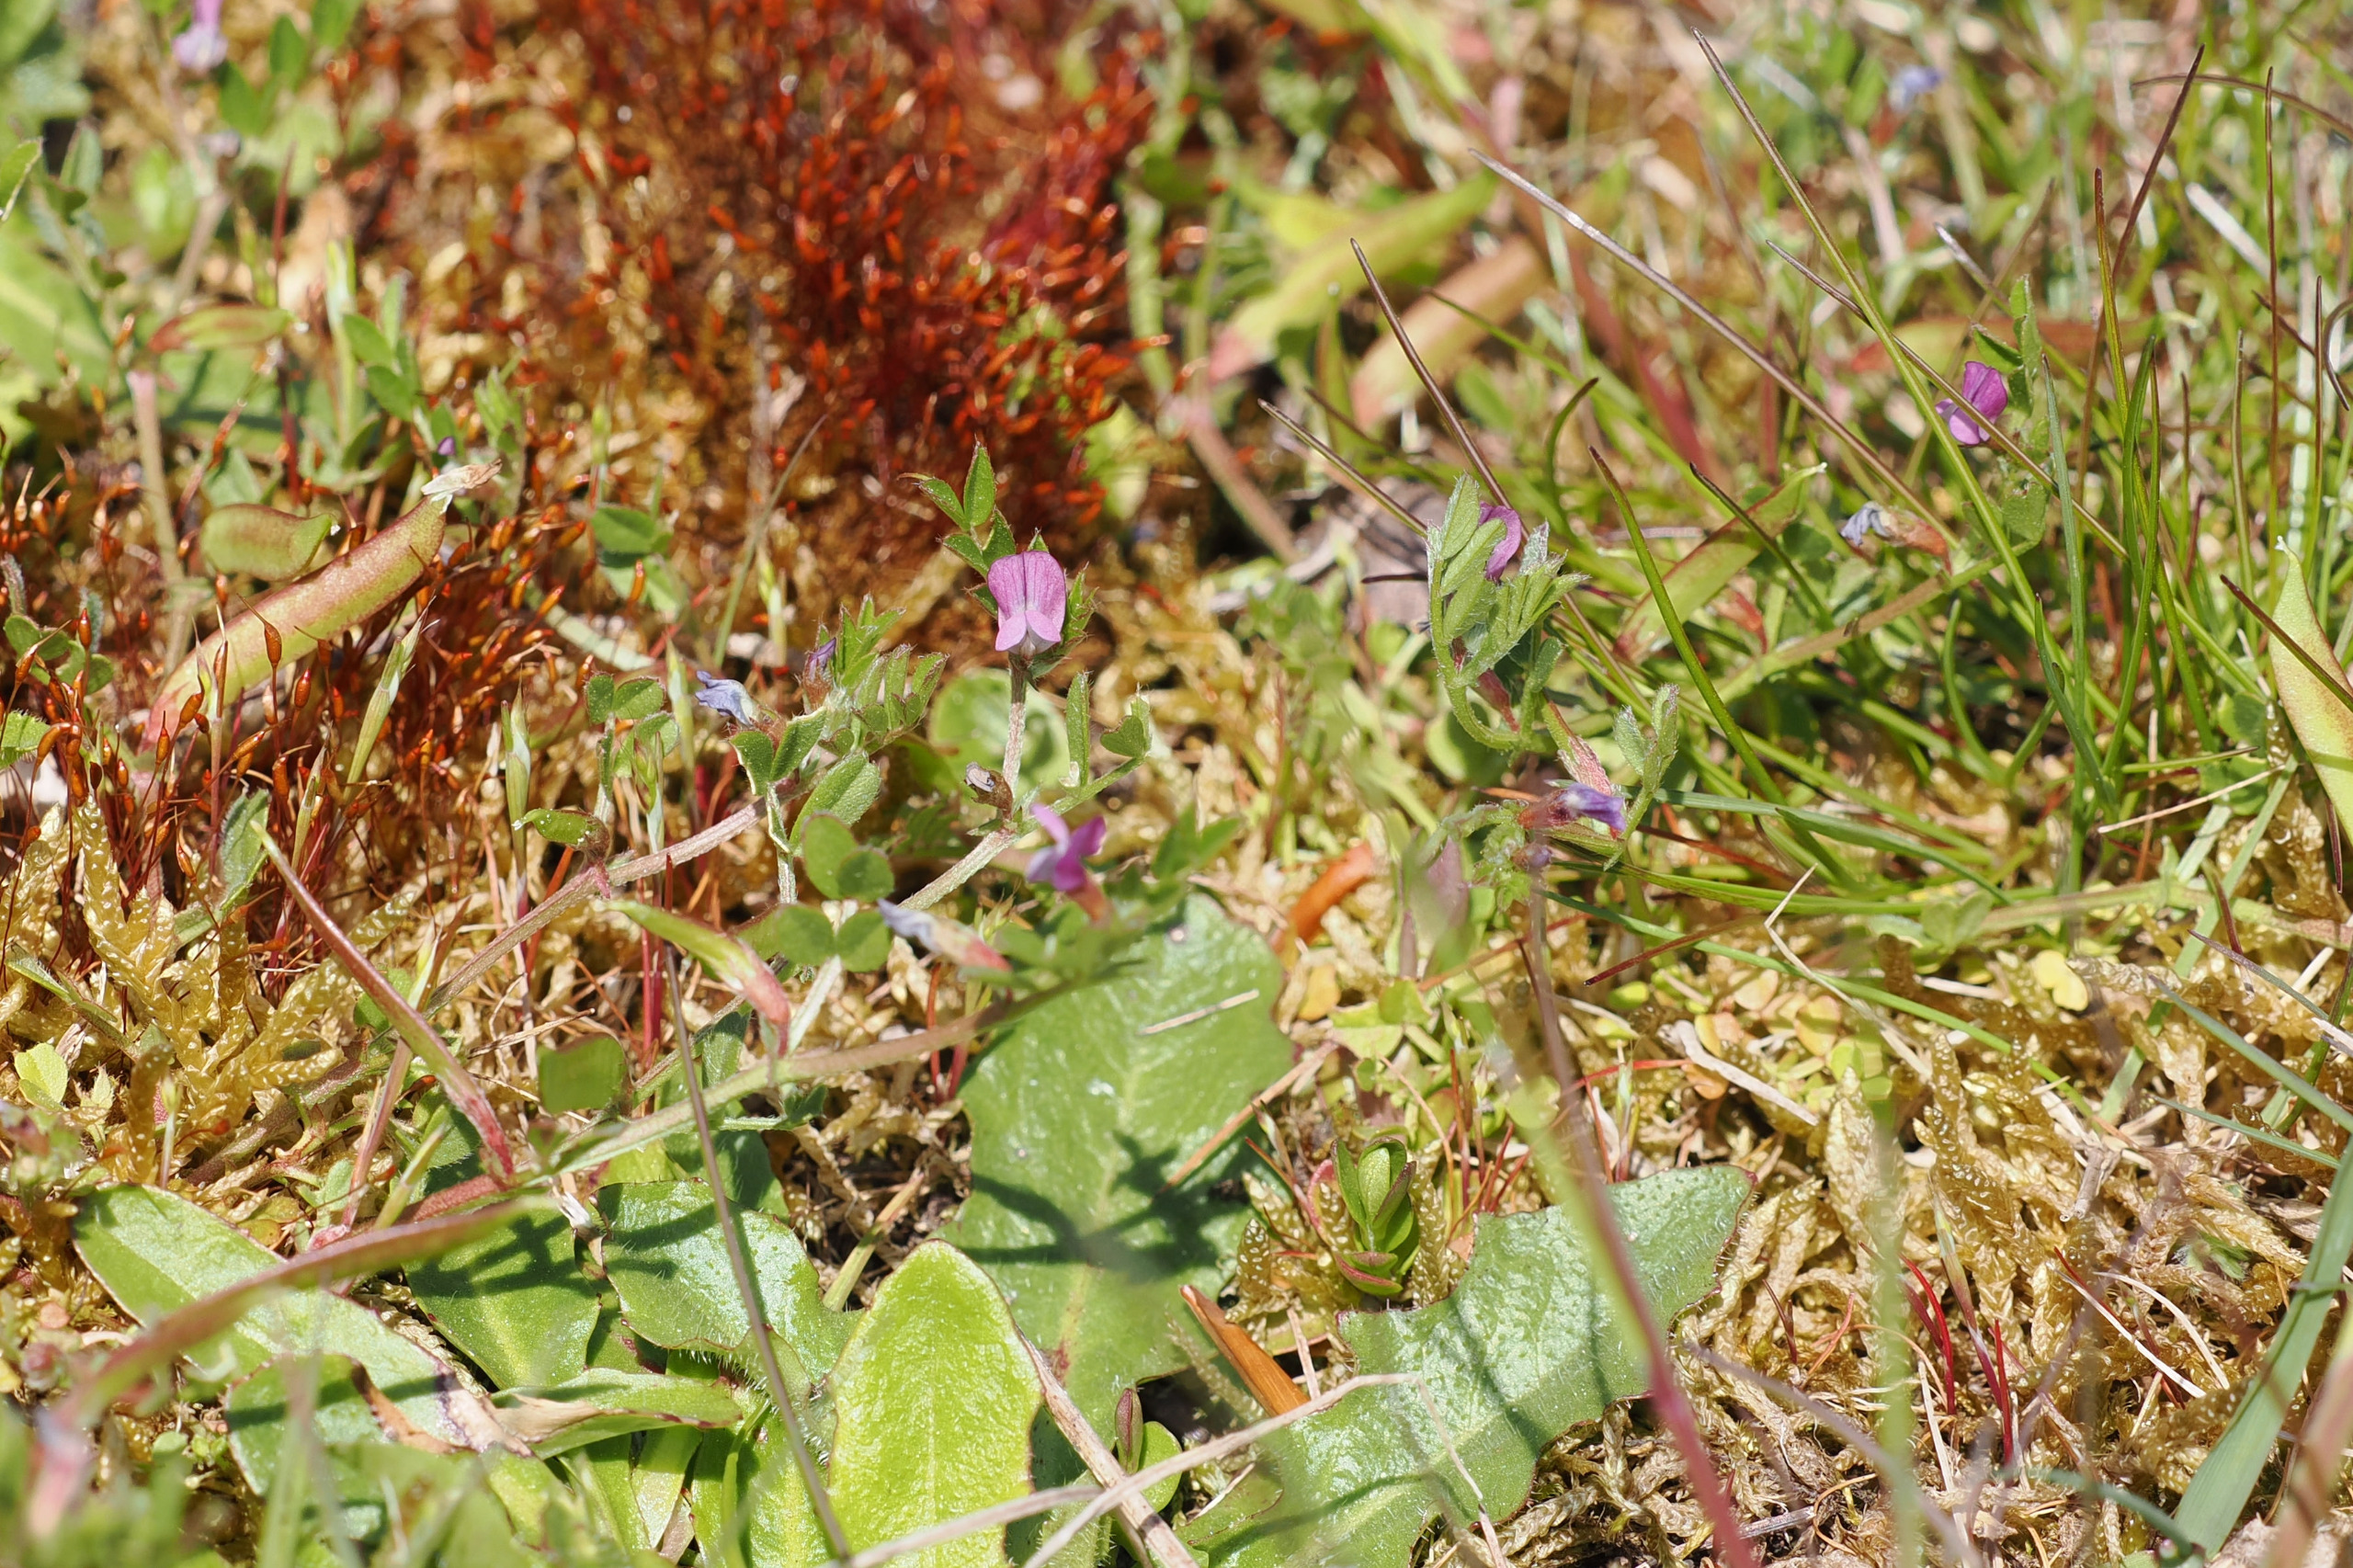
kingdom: Plantae
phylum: Tracheophyta
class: Magnoliopsida
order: Fabales
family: Fabaceae
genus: Vicia
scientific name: Vicia lathyroides
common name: Vår-vikke
